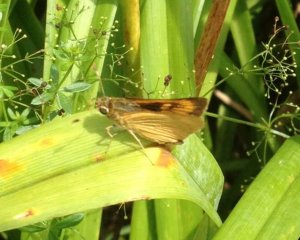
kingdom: Animalia
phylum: Arthropoda
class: Insecta
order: Lepidoptera
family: Hesperiidae
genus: Atrytone
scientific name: Atrytone delaware
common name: Delaware Skipper
